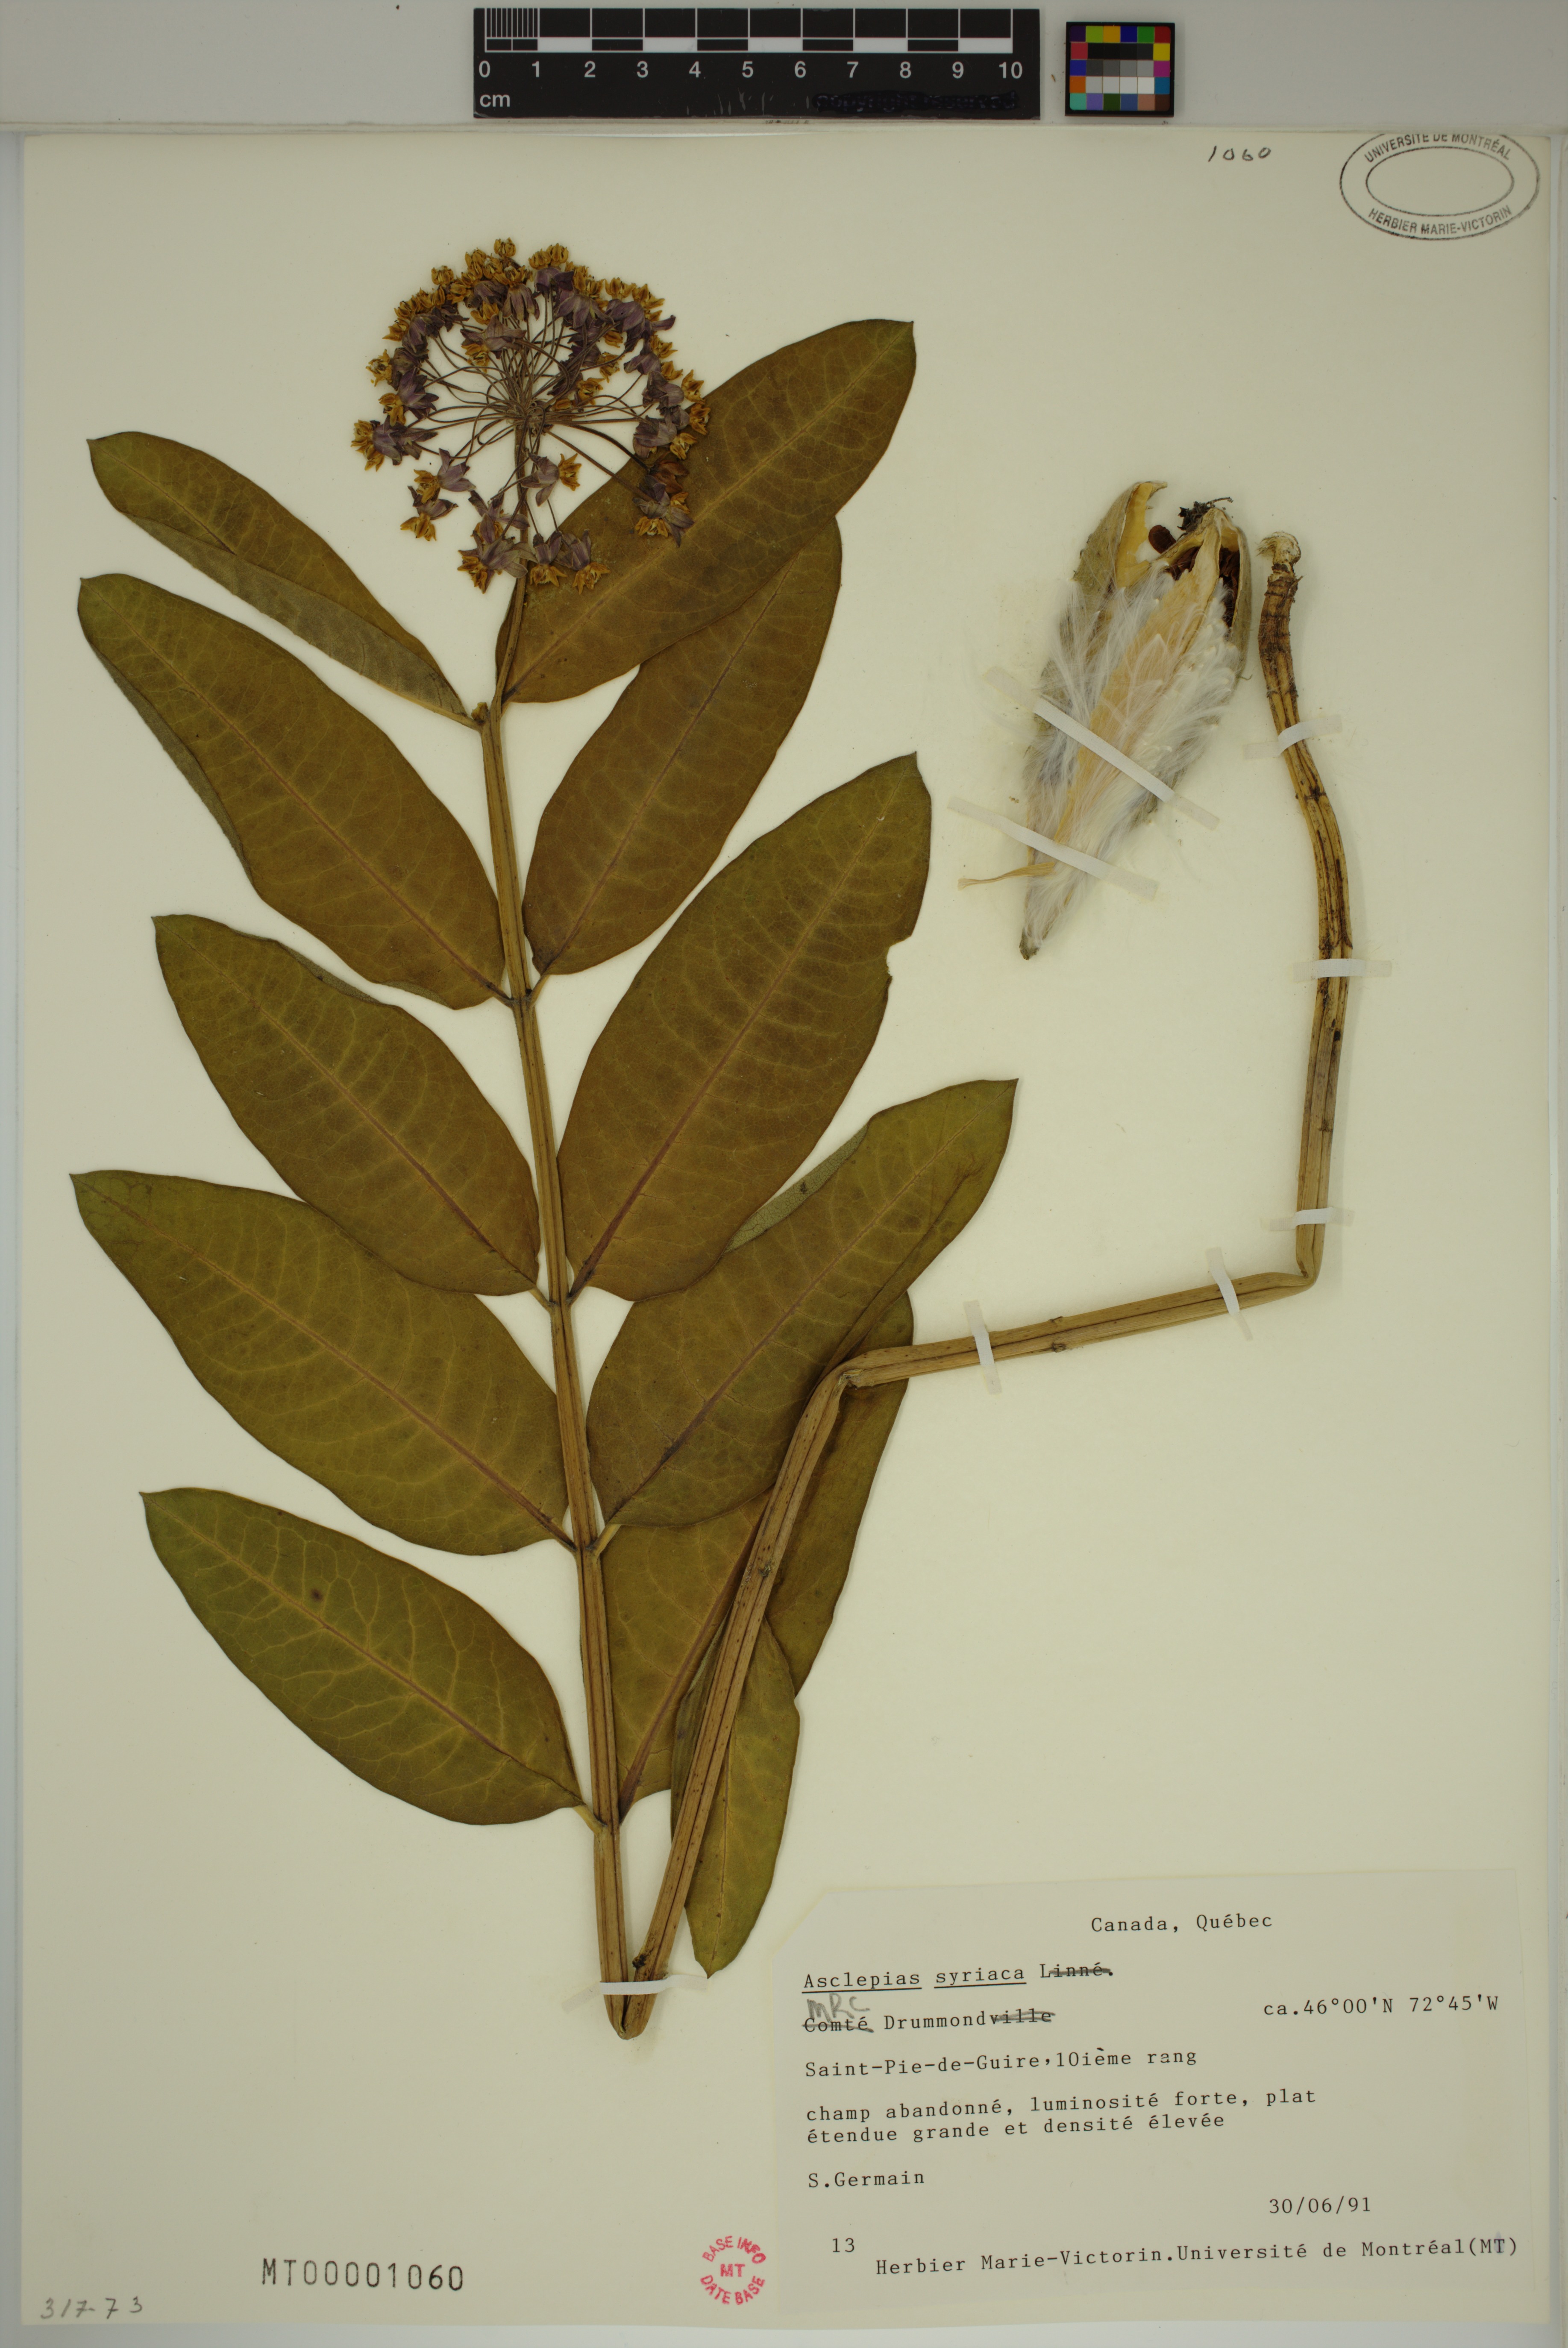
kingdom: Plantae
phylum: Tracheophyta
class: Magnoliopsida
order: Gentianales
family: Apocynaceae
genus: Asclepias
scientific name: Asclepias syriaca
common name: Common milkweed
